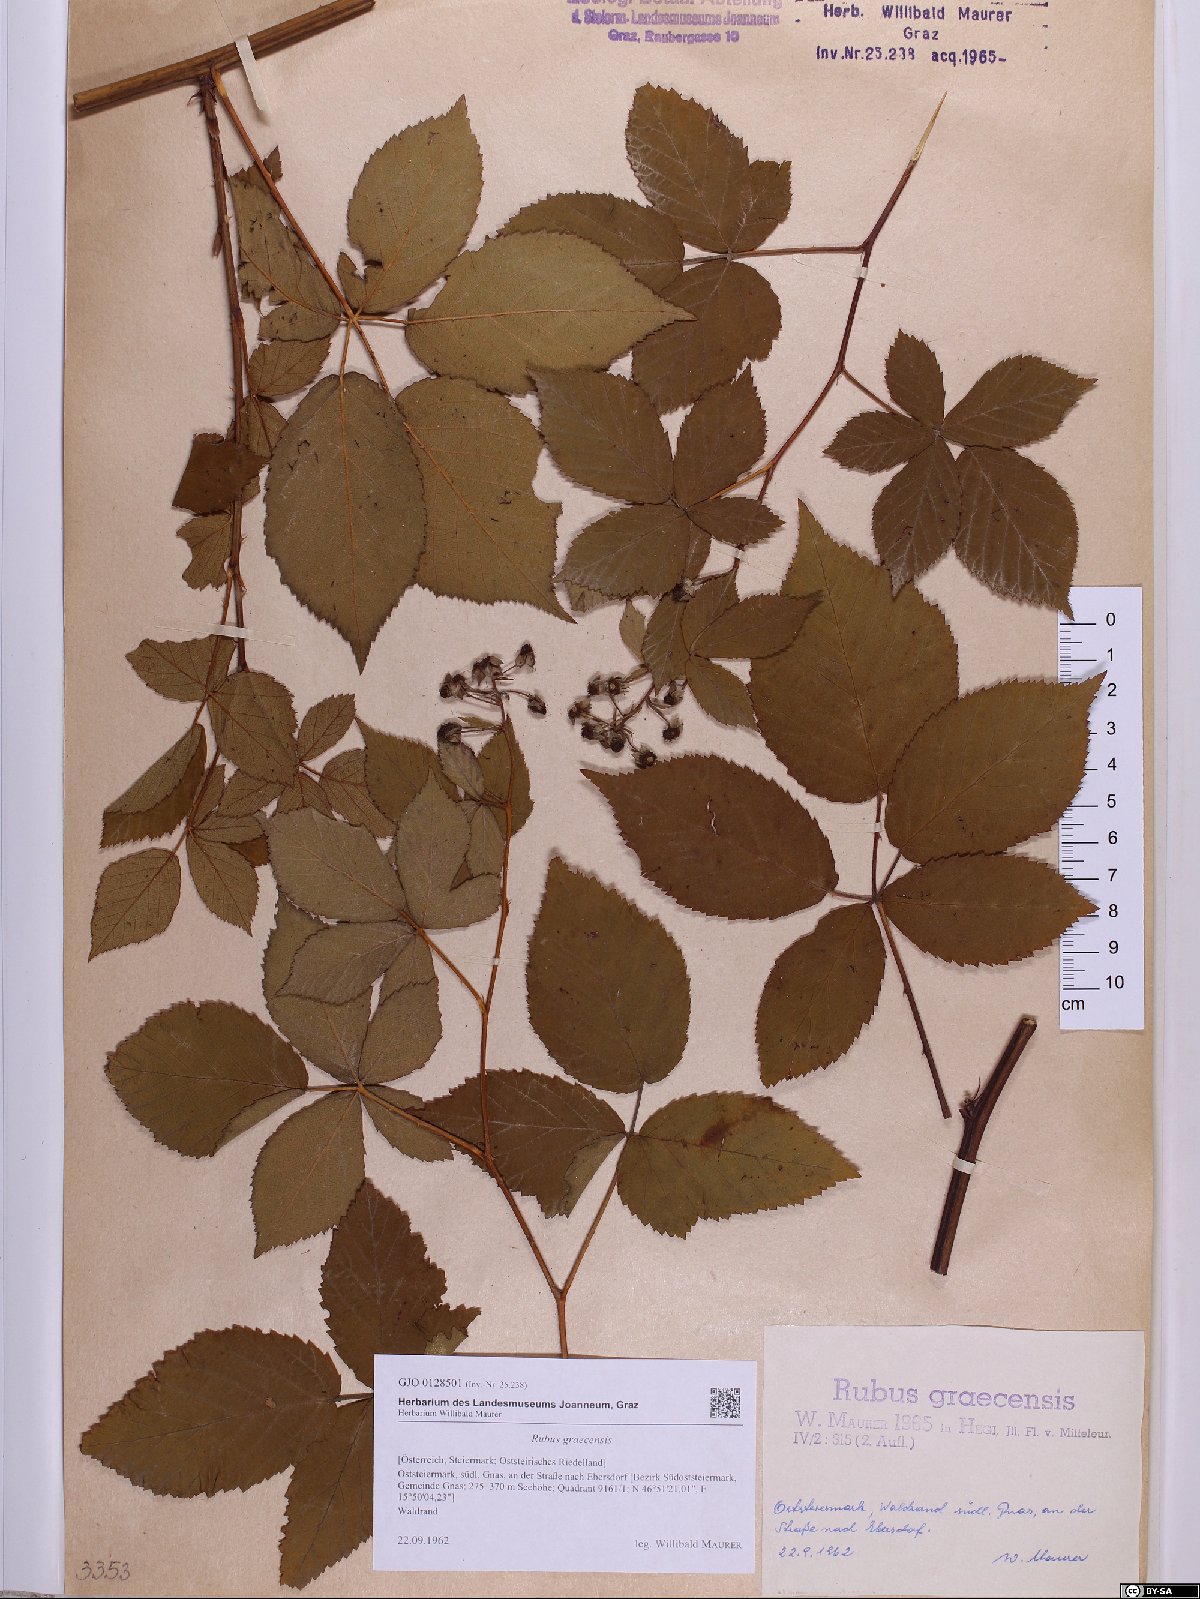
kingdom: Plantae
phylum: Tracheophyta
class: Magnoliopsida
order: Rosales
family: Rosaceae
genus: Rubus
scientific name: Rubus graecensis
